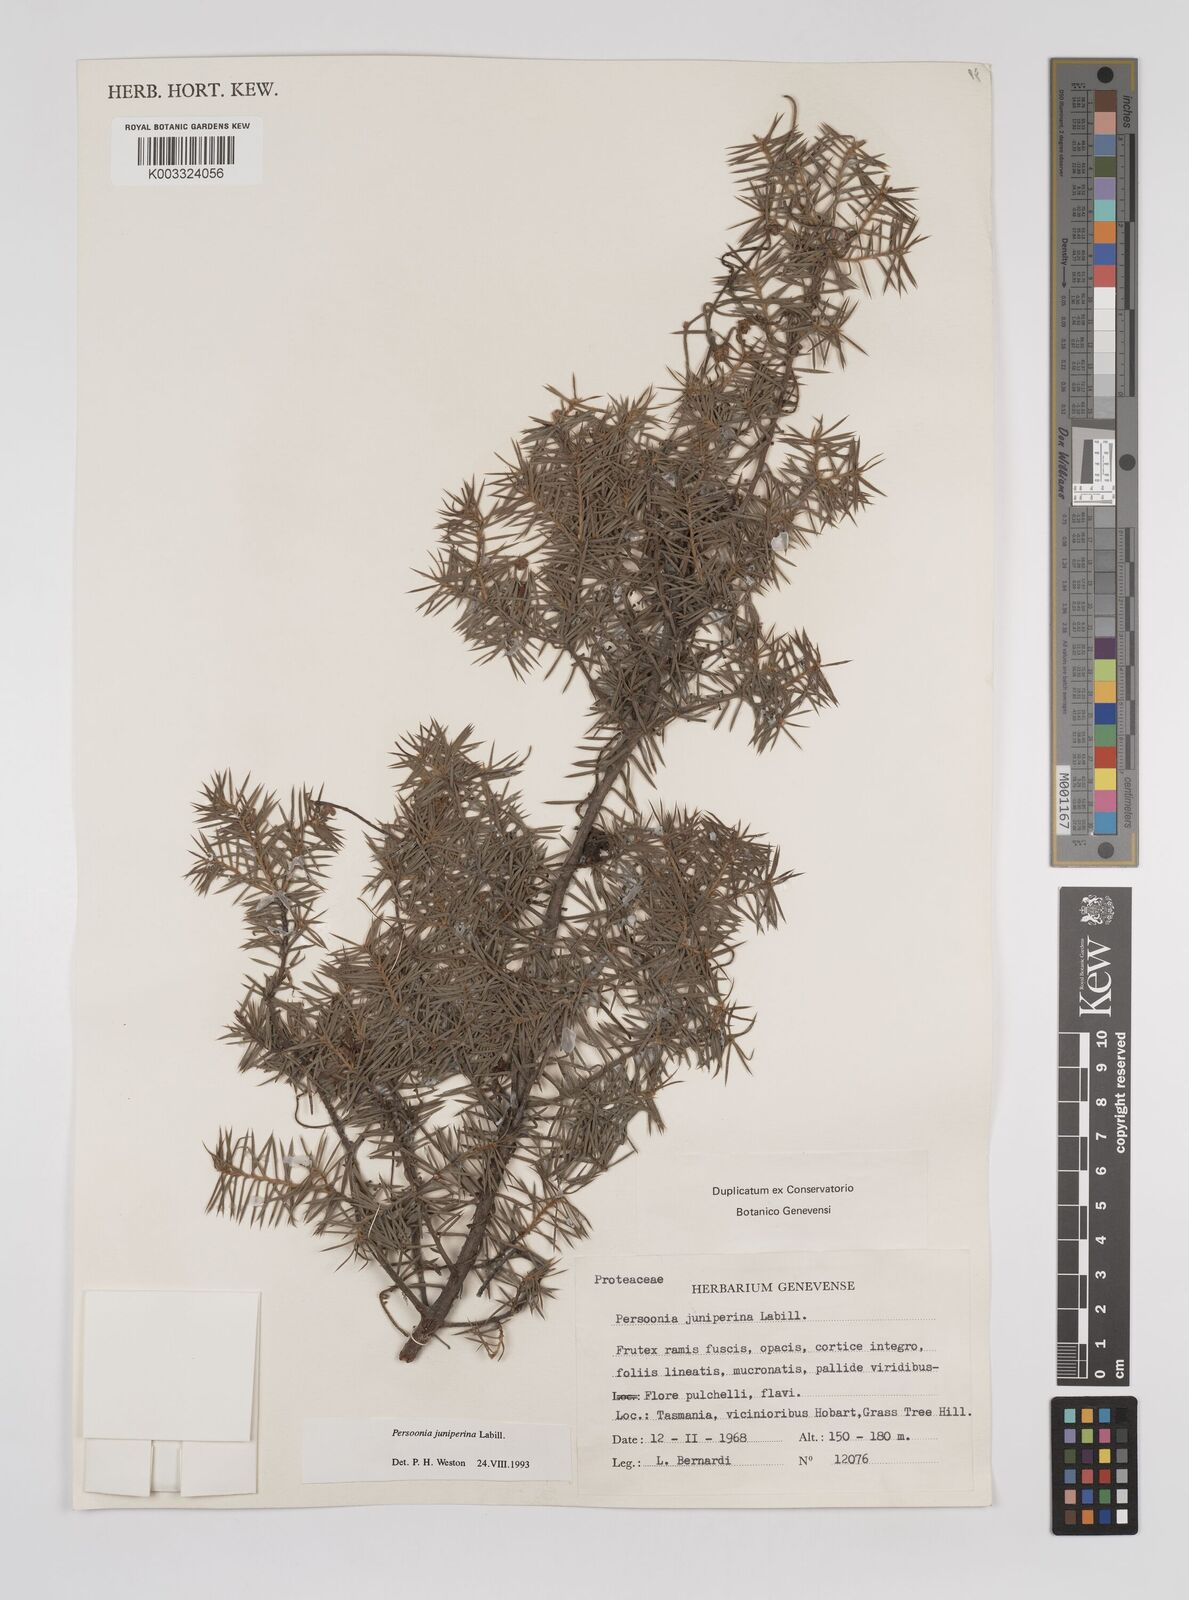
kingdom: Plantae
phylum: Tracheophyta
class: Magnoliopsida
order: Proteales
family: Proteaceae
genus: Persoonia
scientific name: Persoonia juniperina
